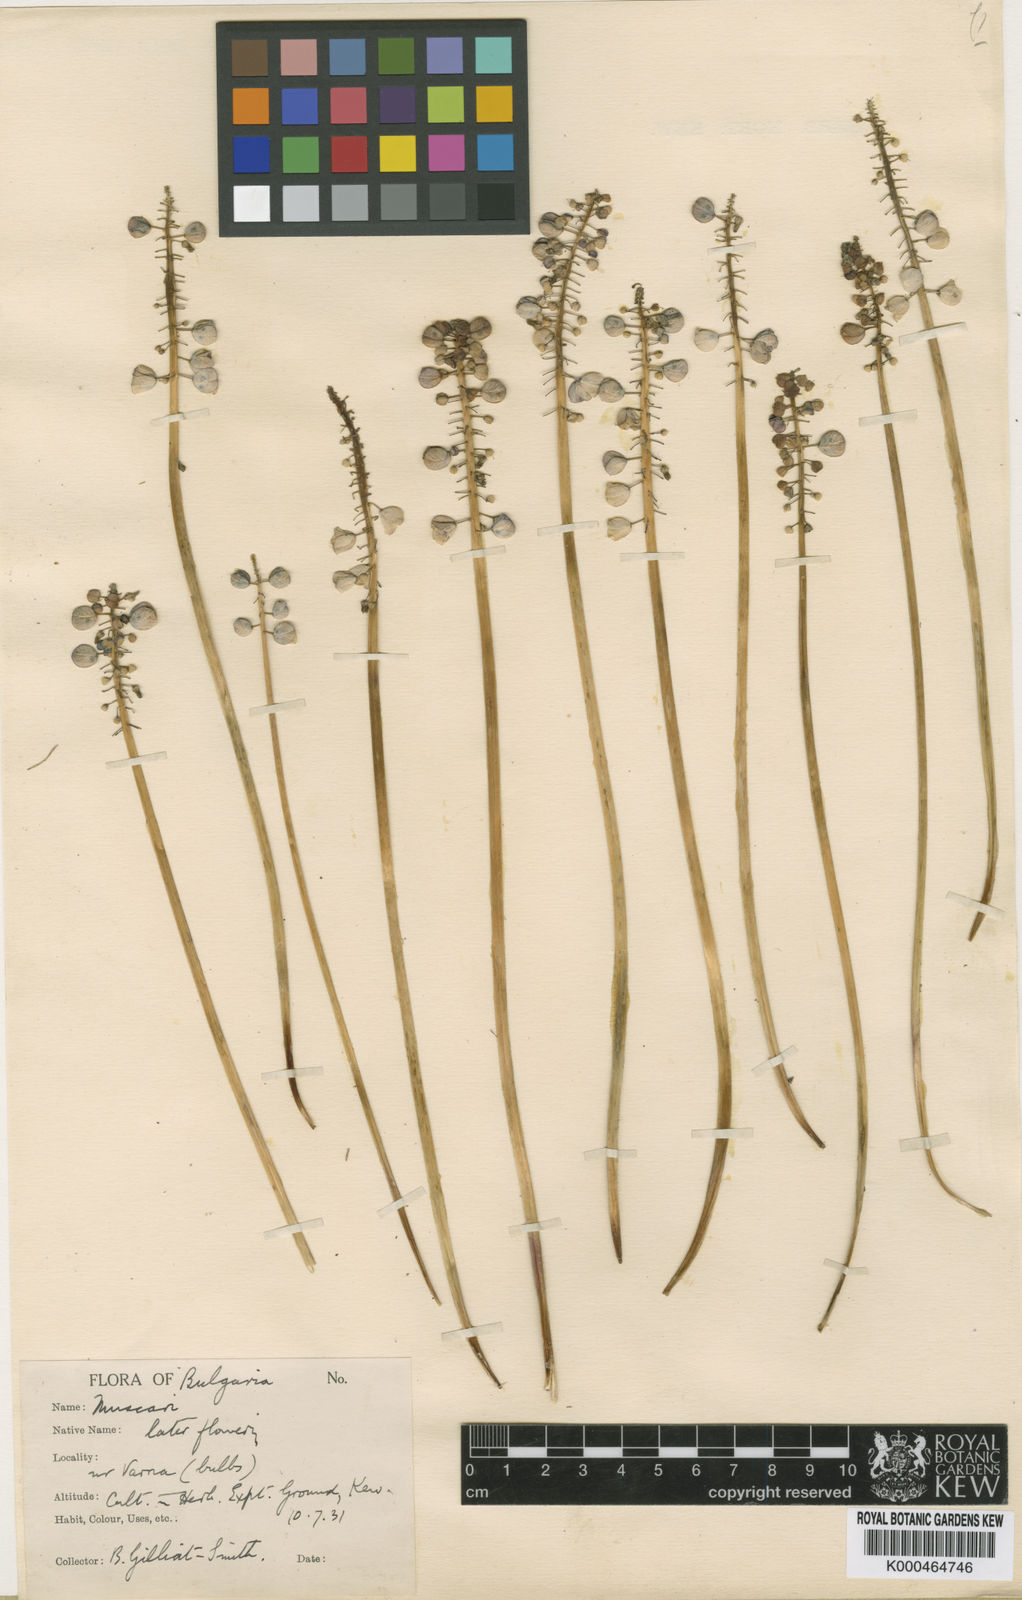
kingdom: Plantae
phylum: Tracheophyta
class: Liliopsida
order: Asparagales
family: Asparagaceae
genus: Muscari
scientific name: Muscari
